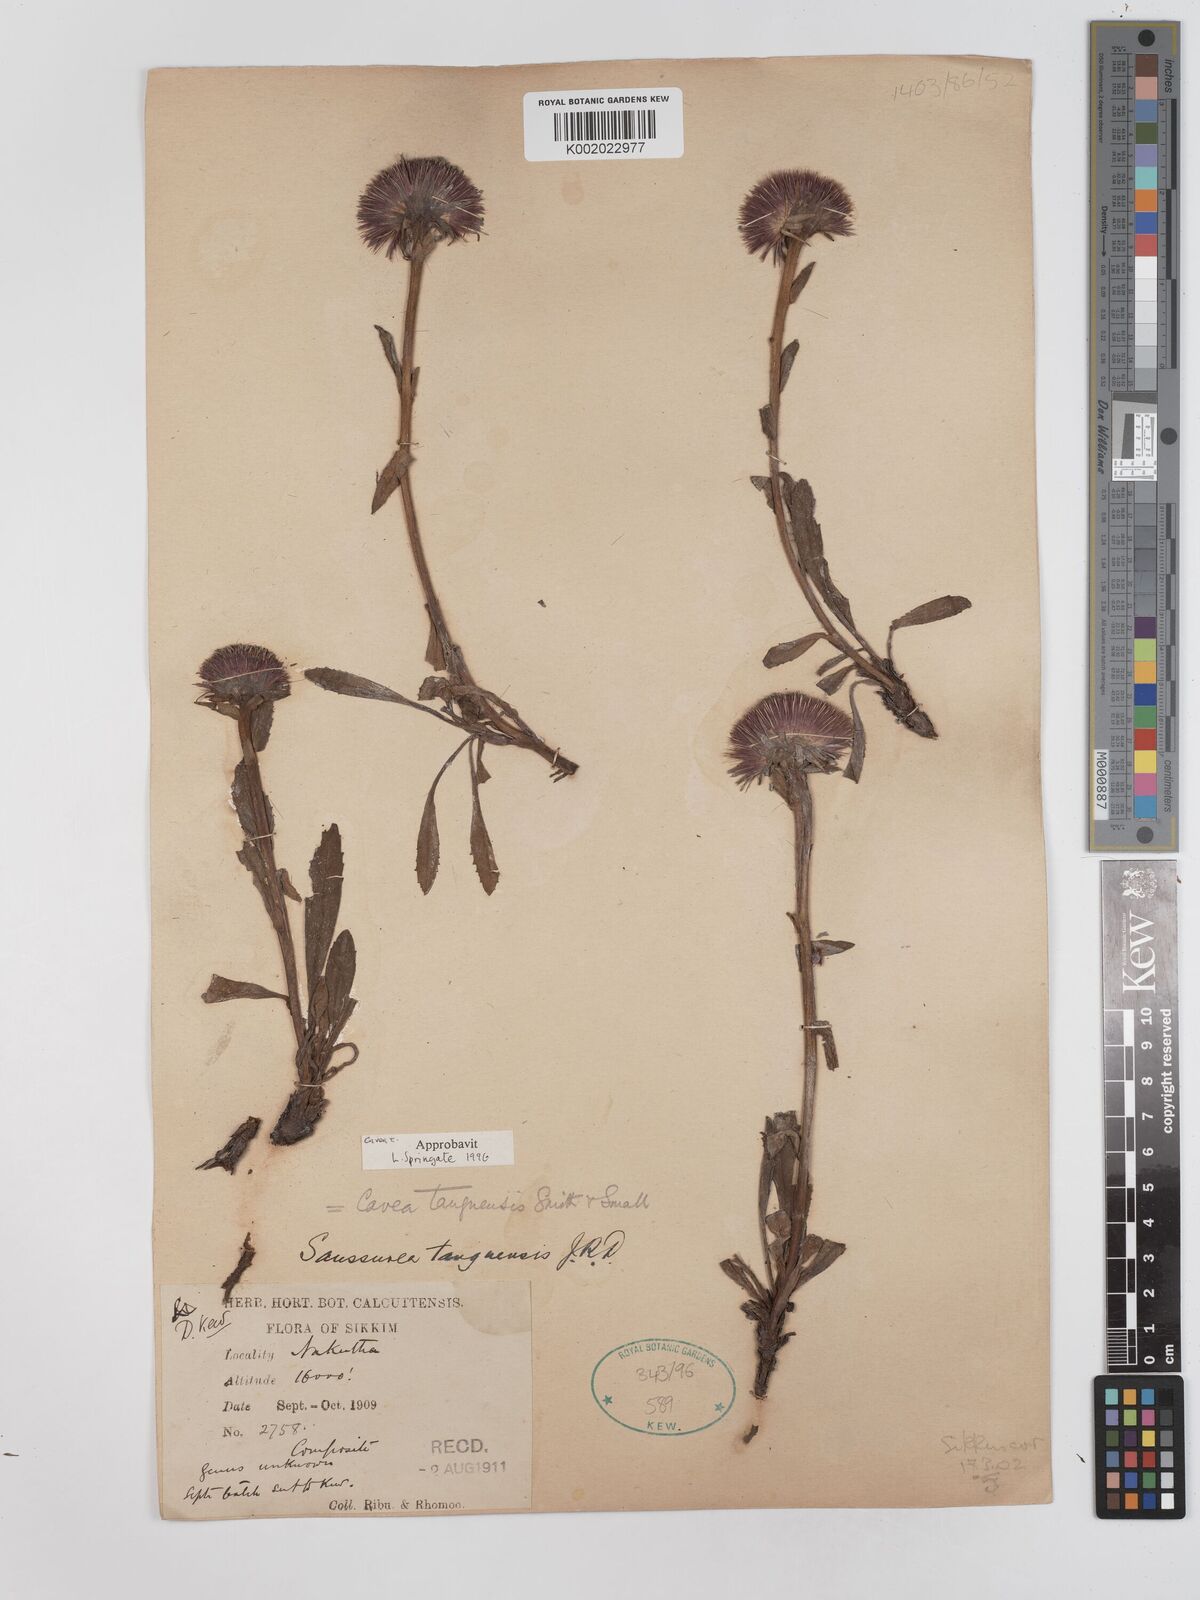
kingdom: Plantae
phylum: Tracheophyta
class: Magnoliopsida
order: Asterales
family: Asteraceae
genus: Cavea
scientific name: Cavea tanguensis
